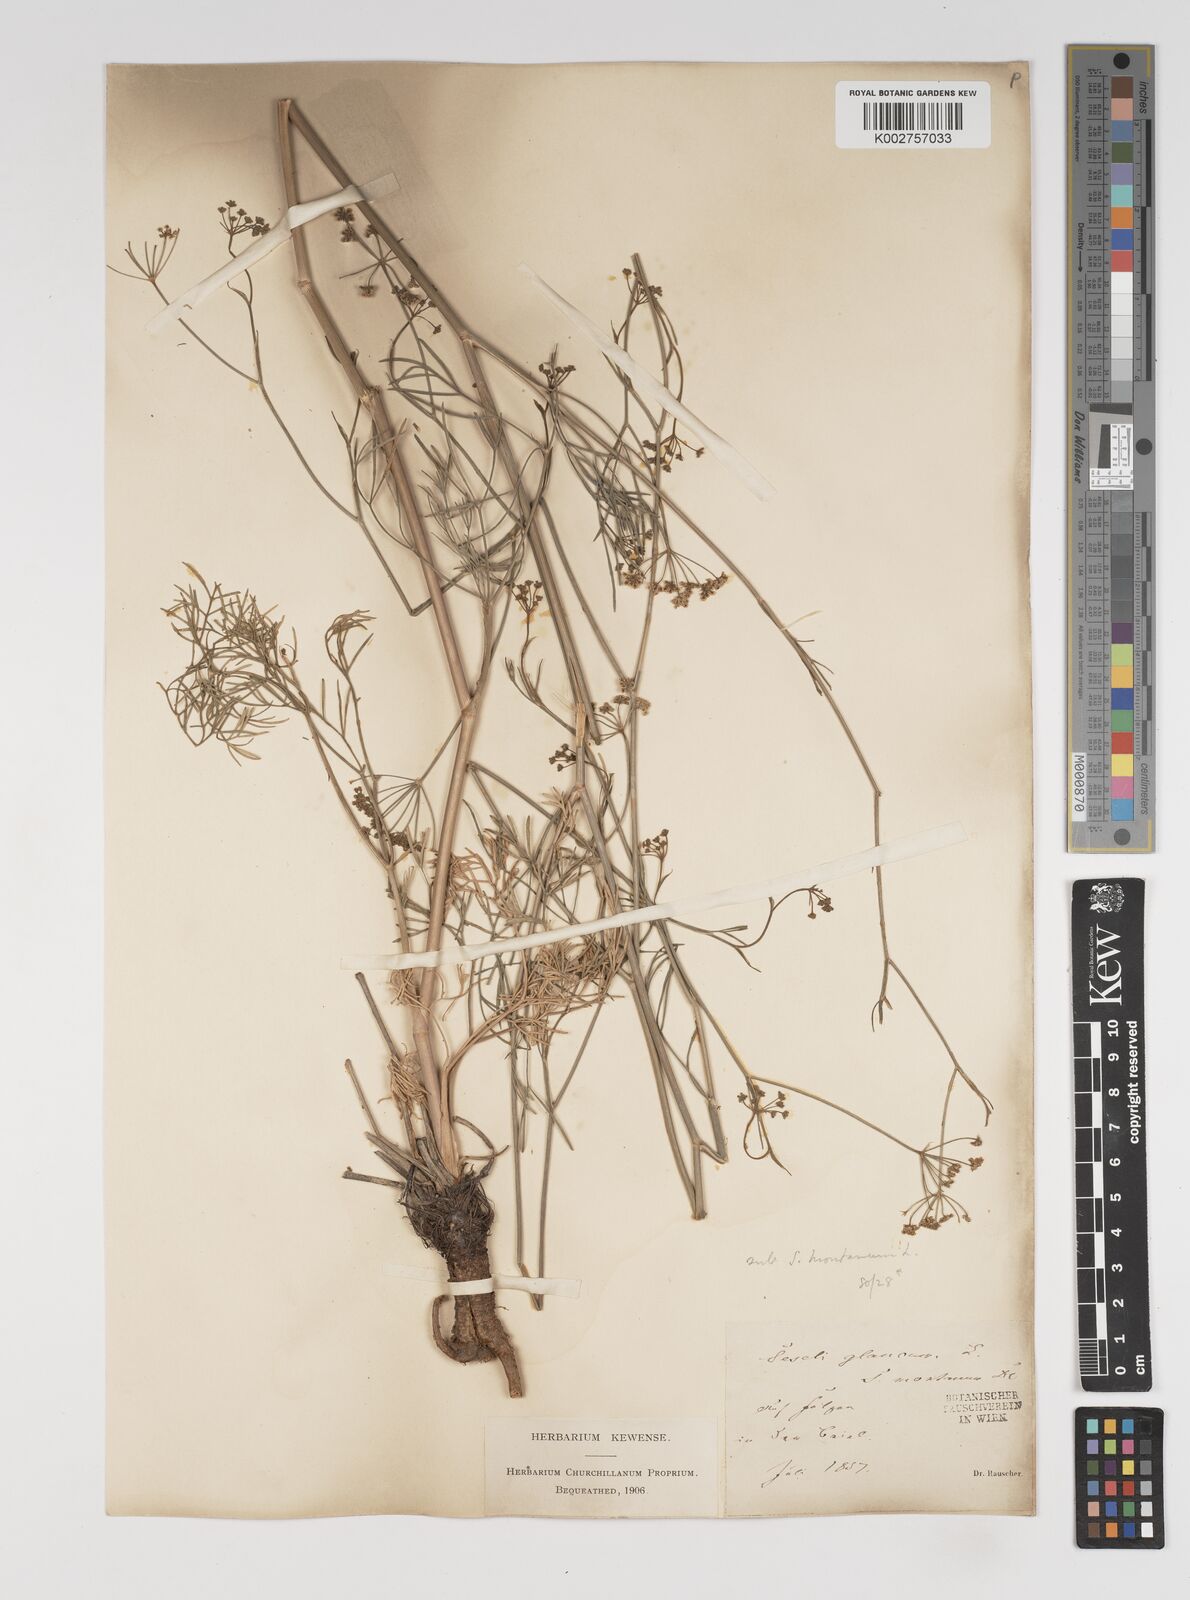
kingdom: Plantae
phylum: Tracheophyta
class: Magnoliopsida
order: Apiales
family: Apiaceae
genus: Seseli
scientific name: Seseli montanum
